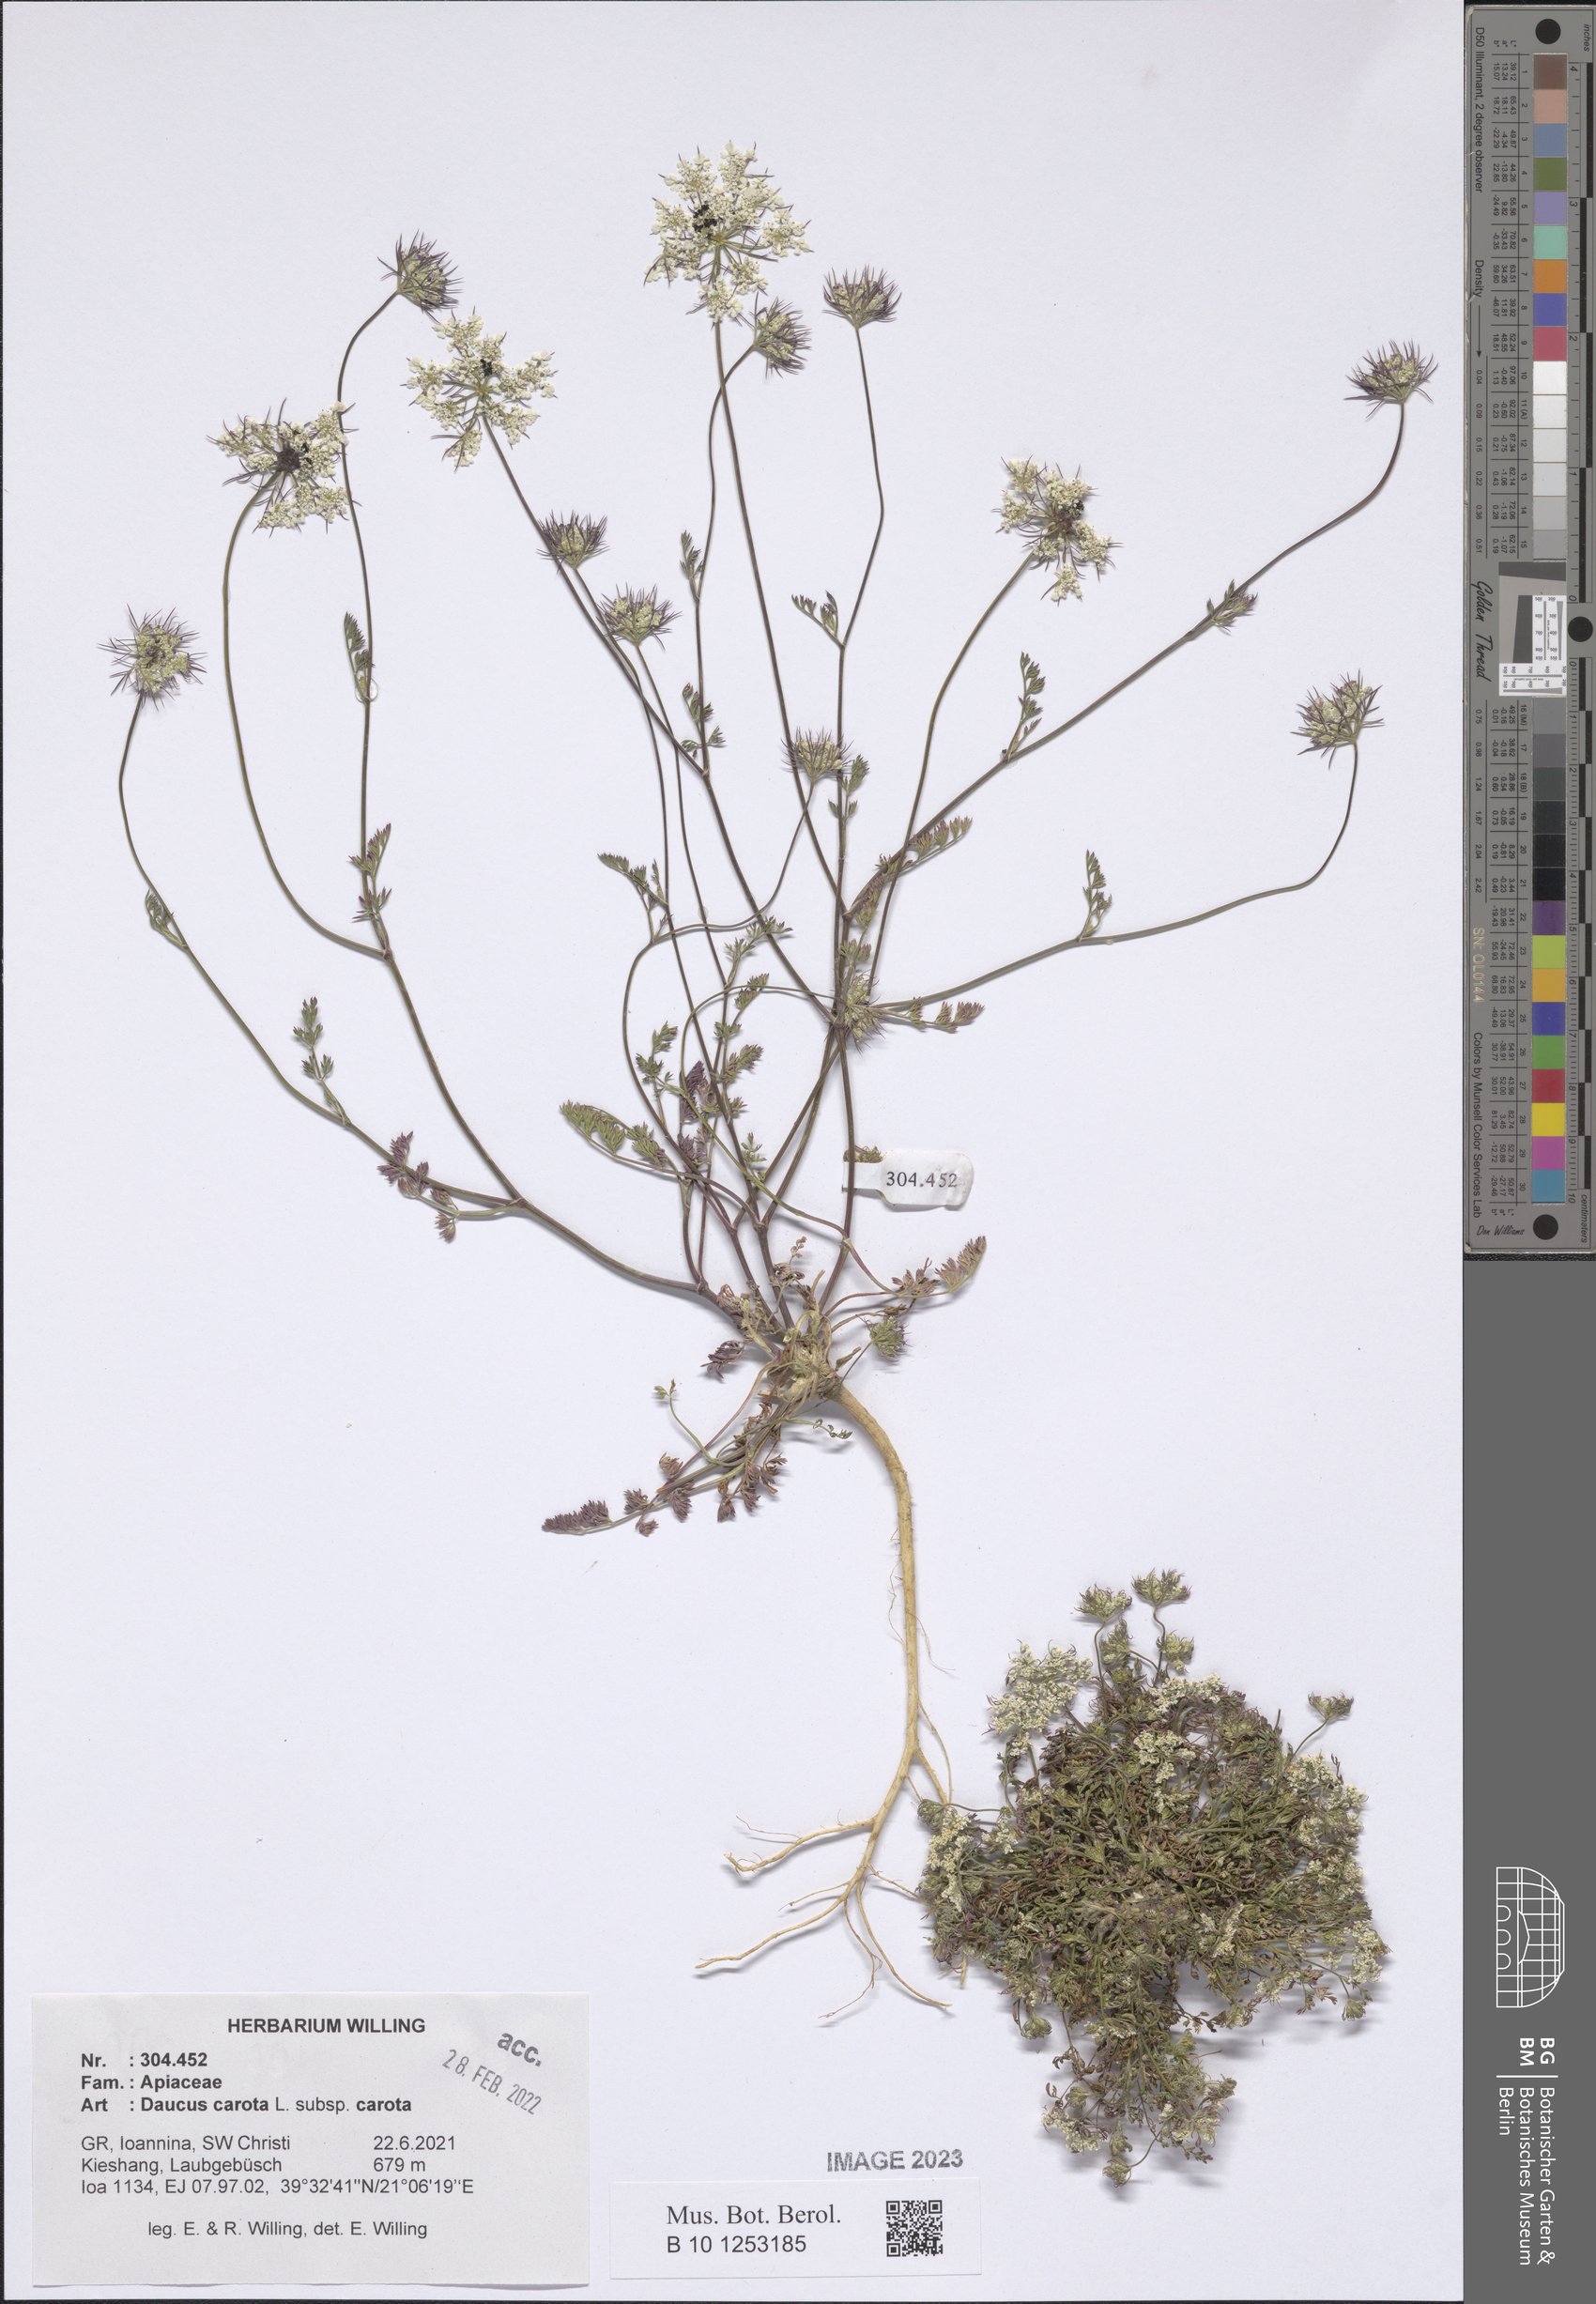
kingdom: Plantae
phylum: Tracheophyta
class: Magnoliopsida
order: Apiales
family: Apiaceae
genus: Daucus
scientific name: Daucus carota
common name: Wild carrot
